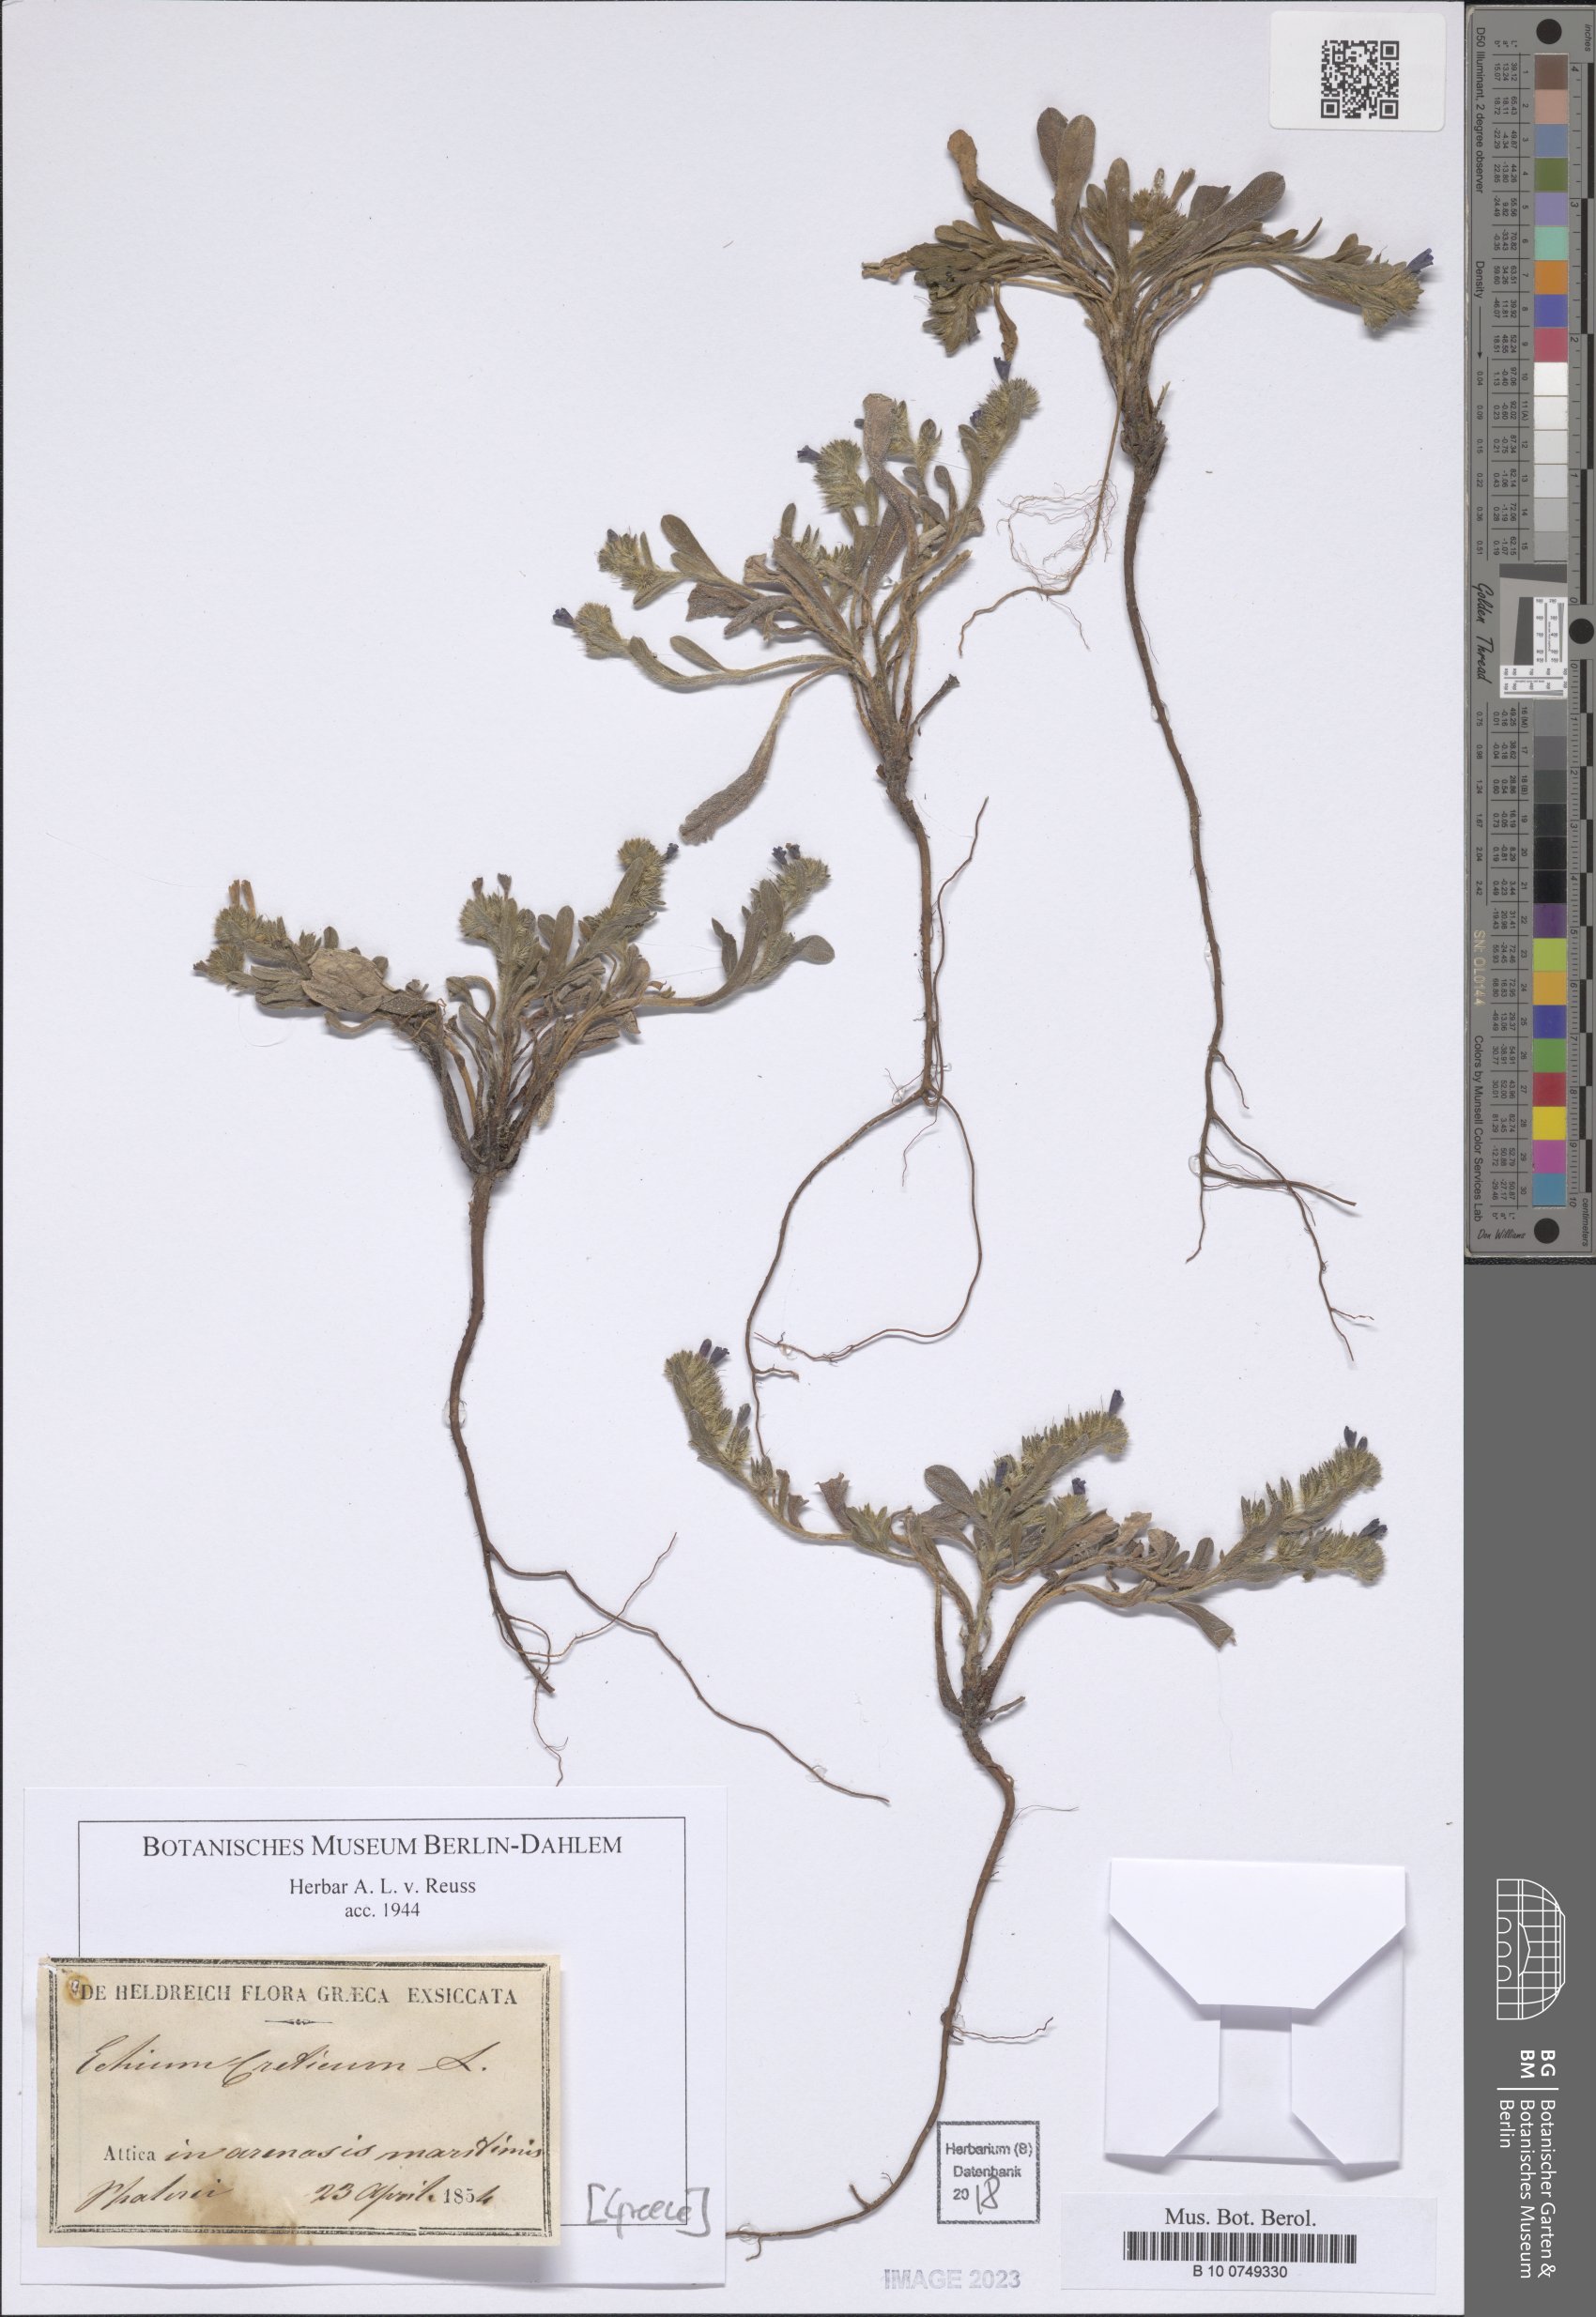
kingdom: Plantae
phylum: Tracheophyta
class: Magnoliopsida
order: Boraginales
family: Boraginaceae
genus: Echium
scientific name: Echium creticum
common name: Cretan viper's bugloss
